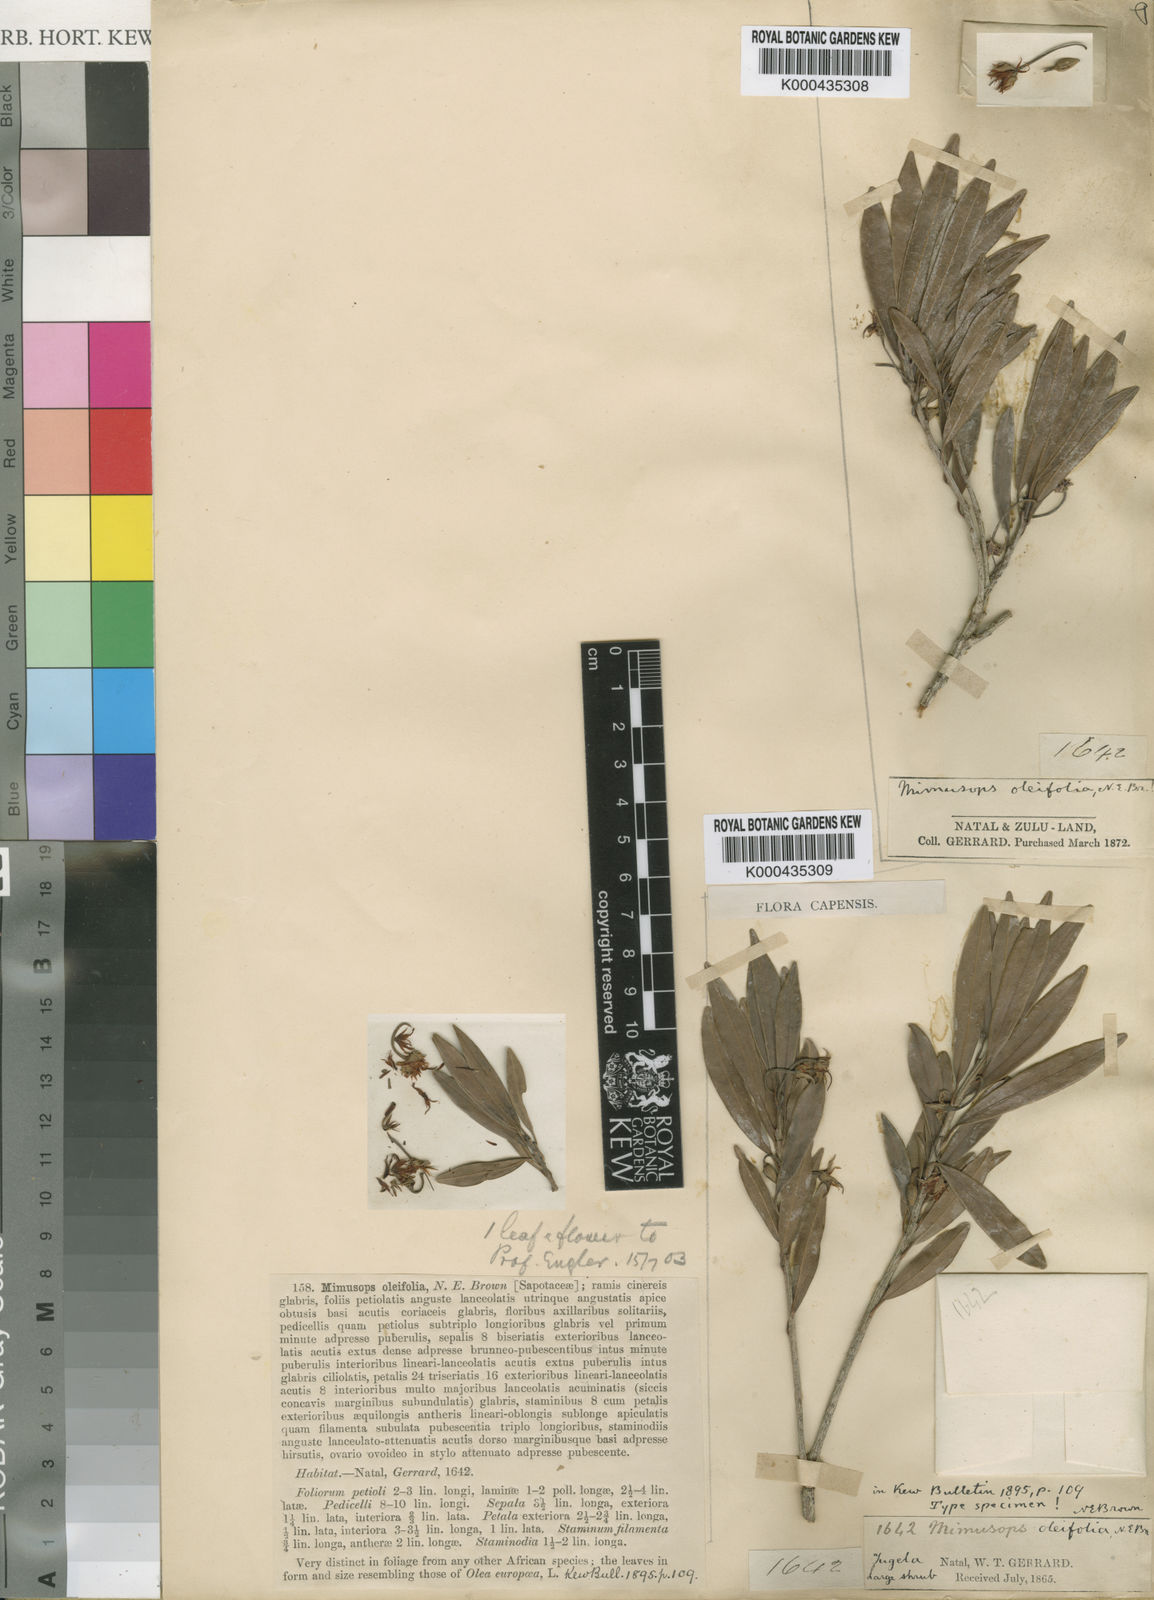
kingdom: Plantae
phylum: Tracheophyta
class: Magnoliopsida
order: Ericales
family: Sapotaceae
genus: Mimusops
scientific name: Mimusops obovata
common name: Red milkwood
